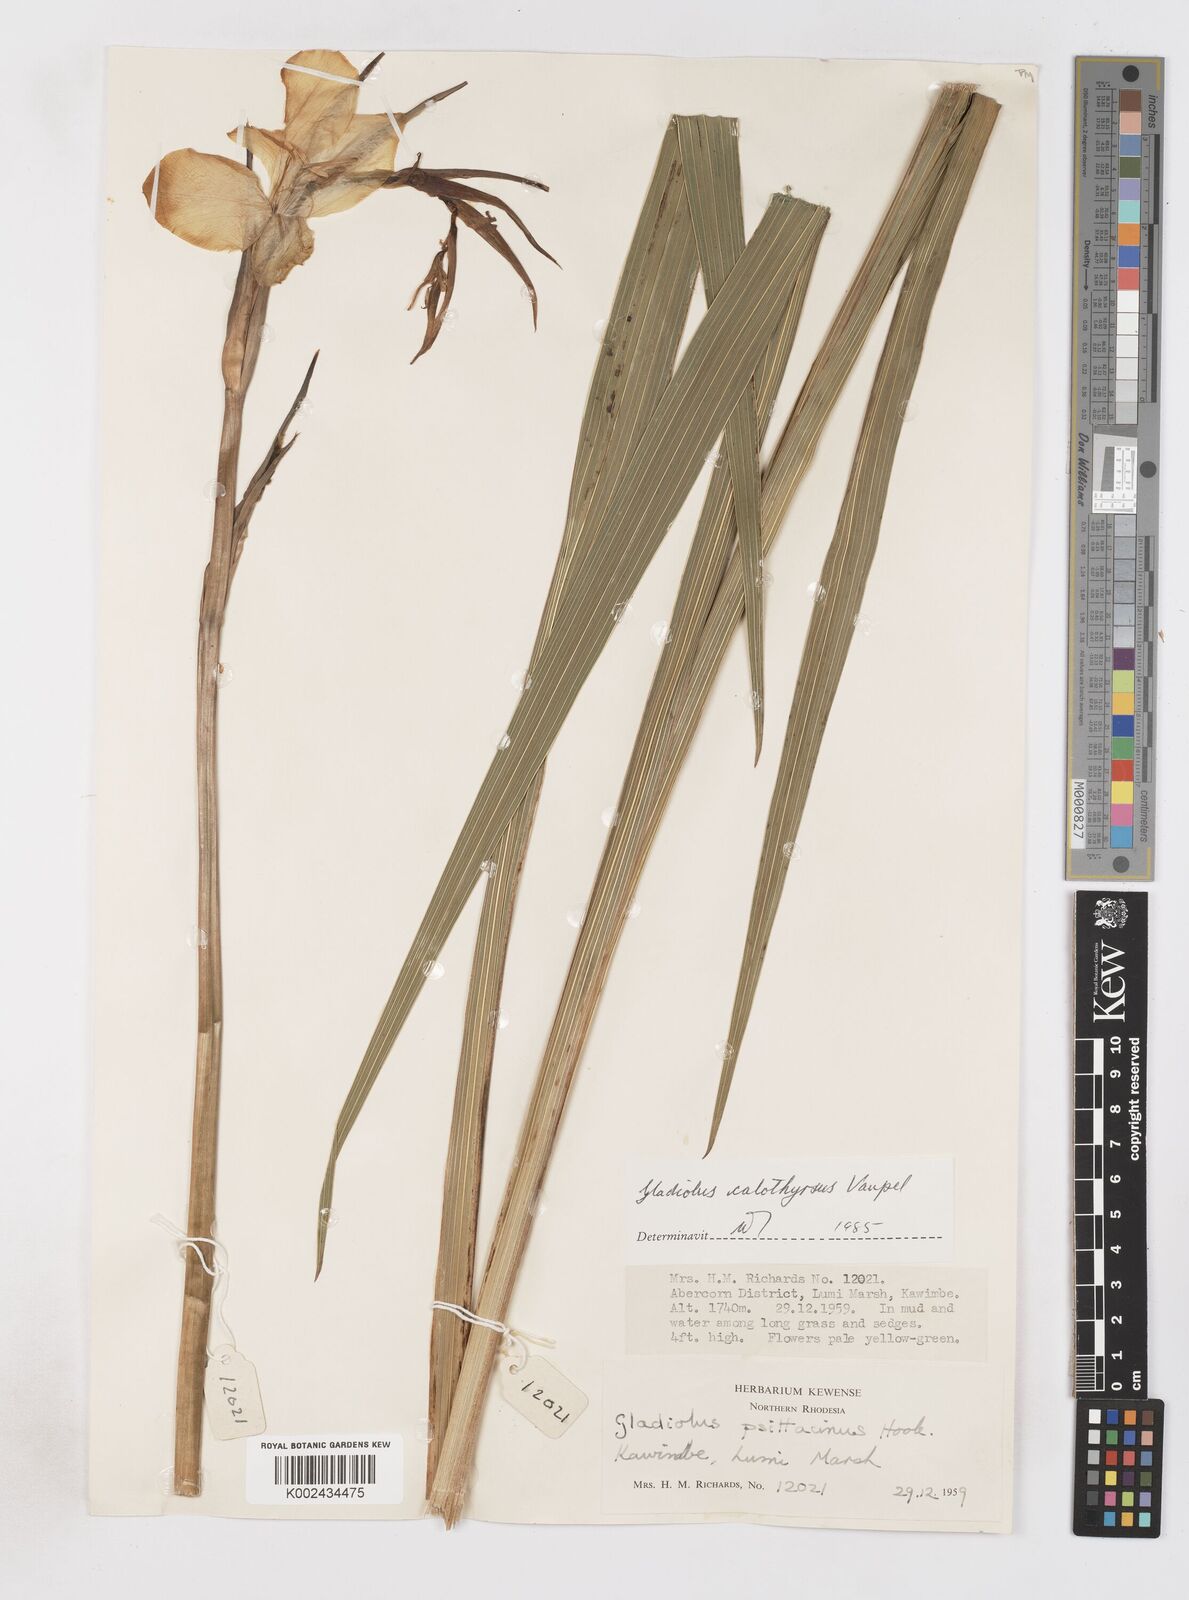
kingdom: Plantae
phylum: Tracheophyta
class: Liliopsida
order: Asparagales
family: Iridaceae
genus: Gladiolus
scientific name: Gladiolus dalenii
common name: Cornflag
